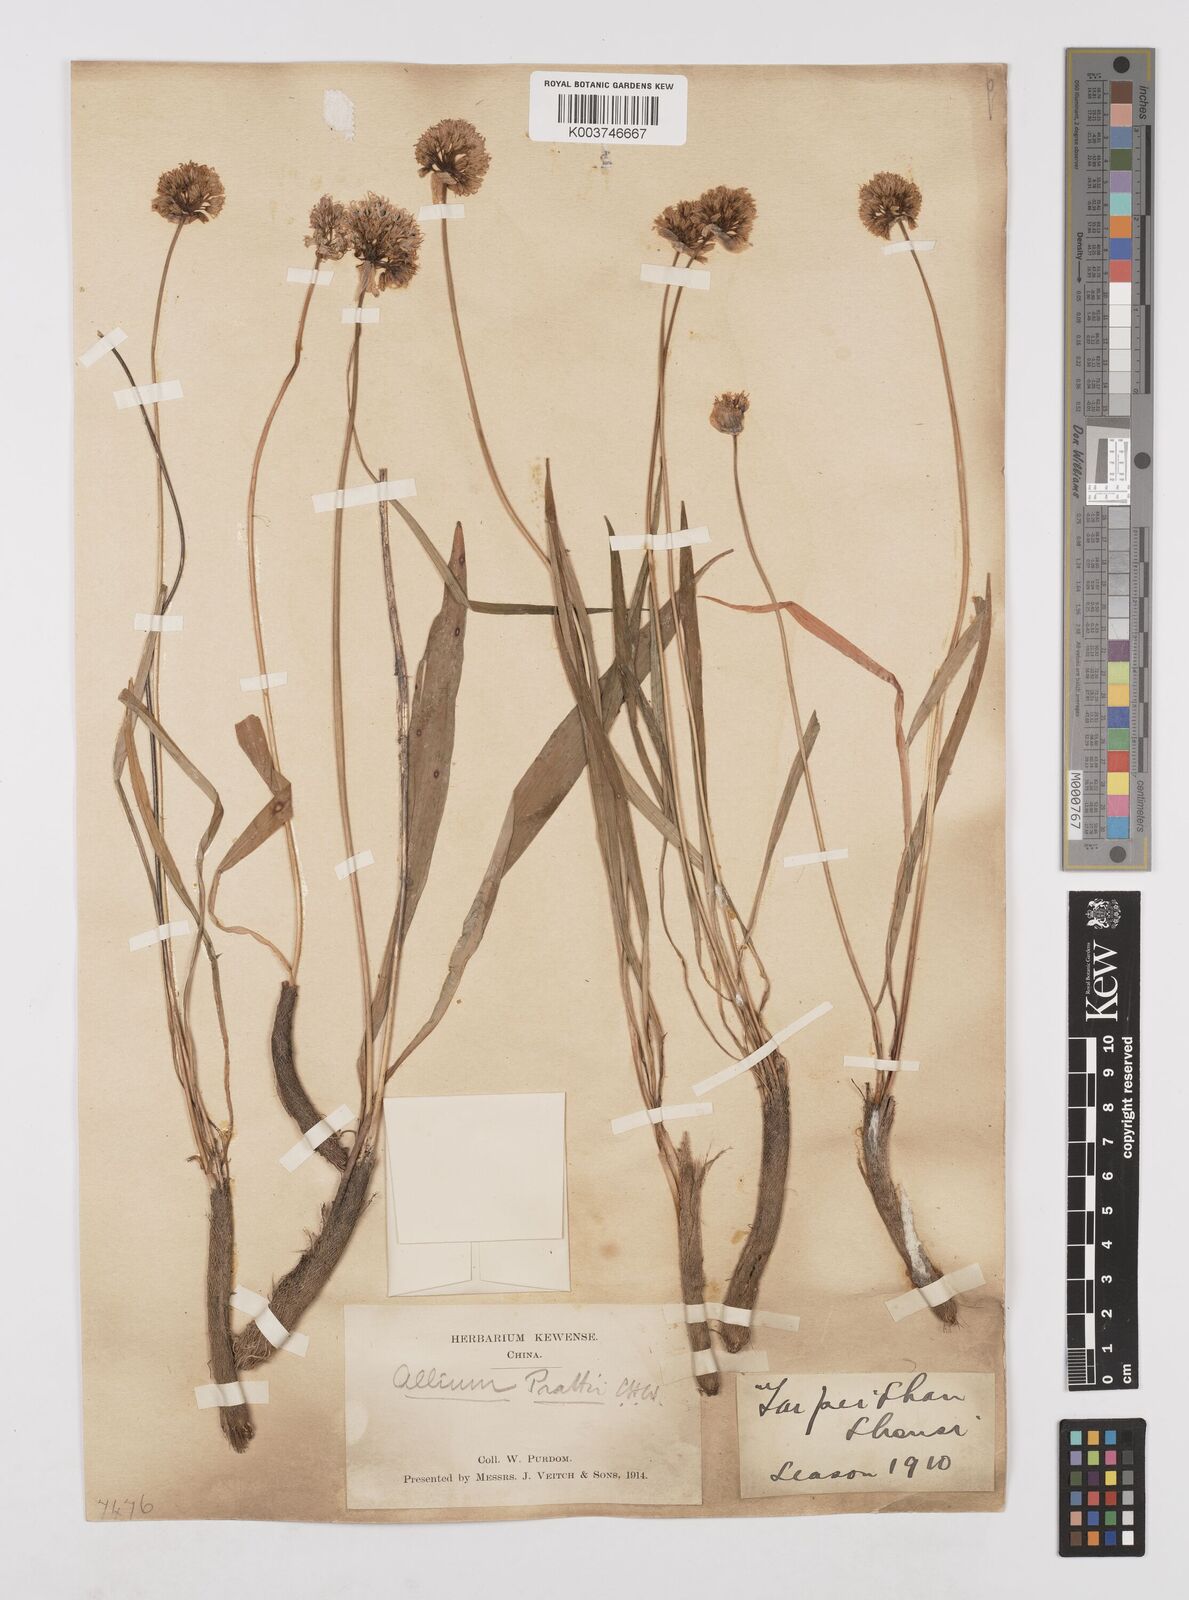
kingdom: Plantae
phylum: Tracheophyta
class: Liliopsida
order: Asparagales
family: Amaryllidaceae
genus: Allium
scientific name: Allium prattii
